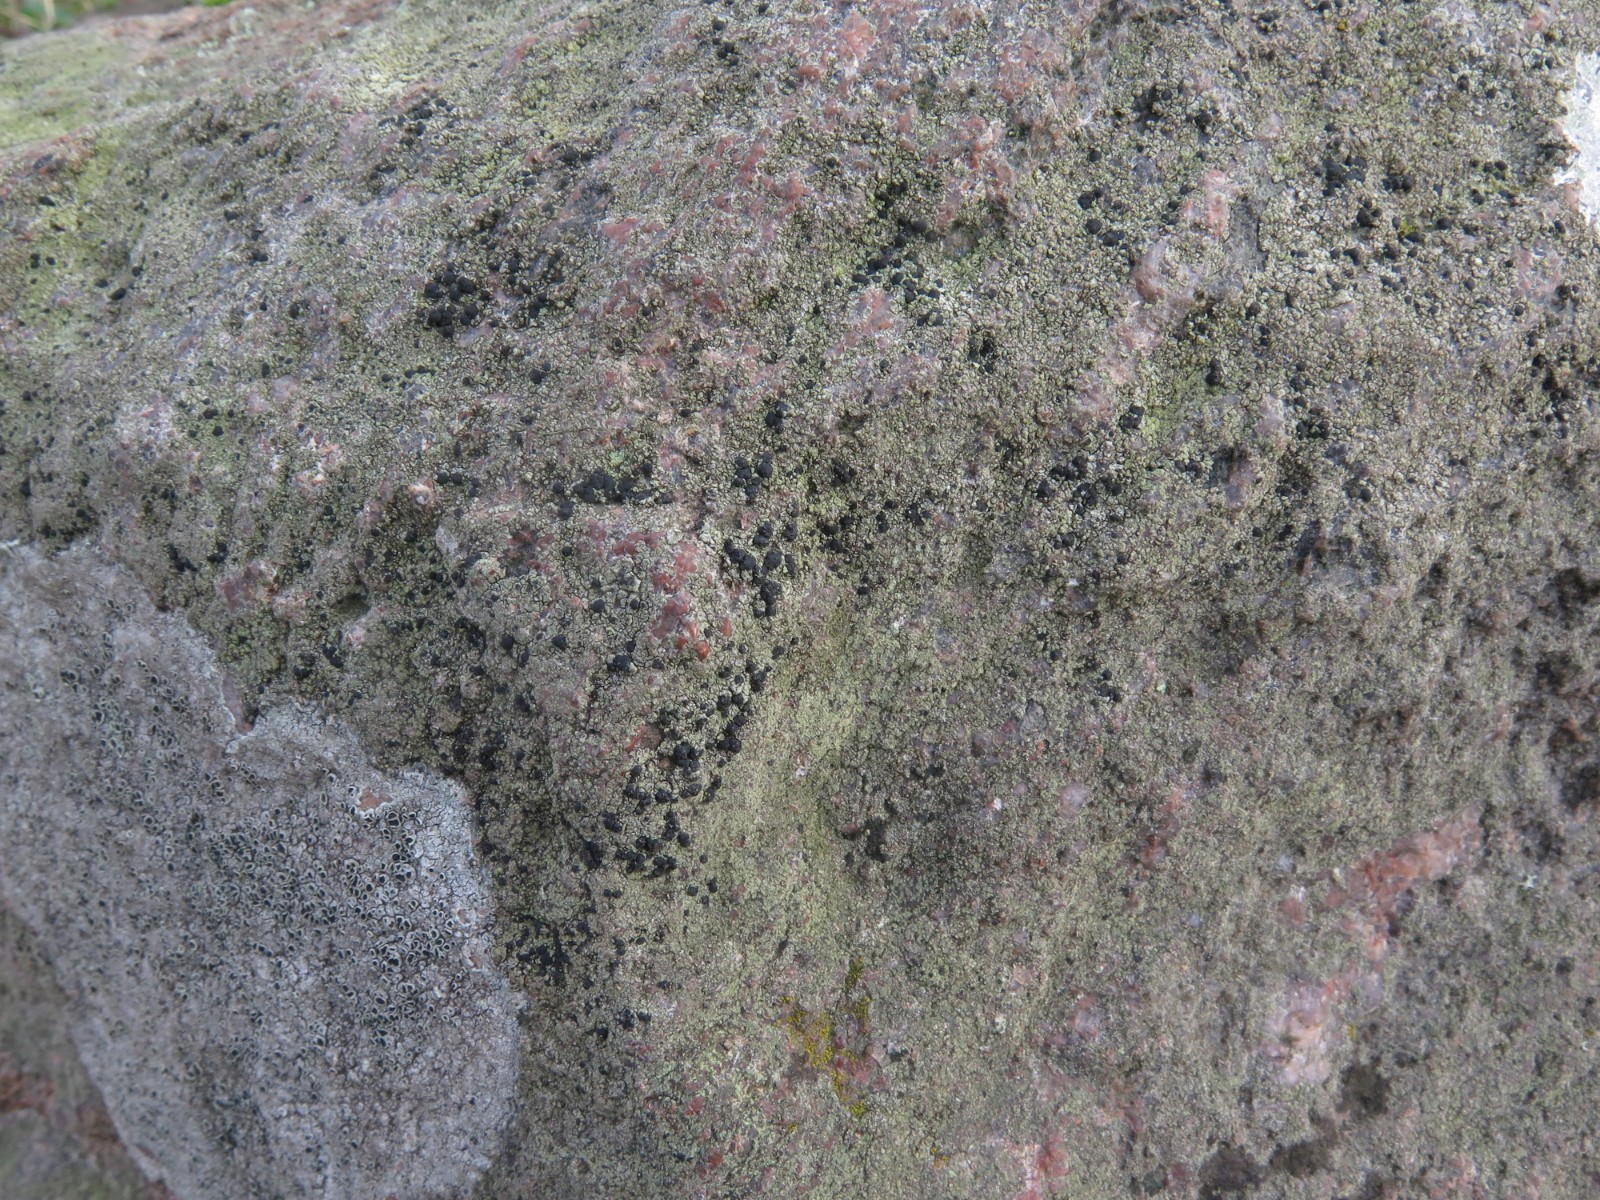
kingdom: Fungi
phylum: Ascomycota
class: Lecanoromycetes
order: Lecanorales
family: Lecanoraceae
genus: Lecidella
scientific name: Lecidella scabra
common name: skurvet skivelav
